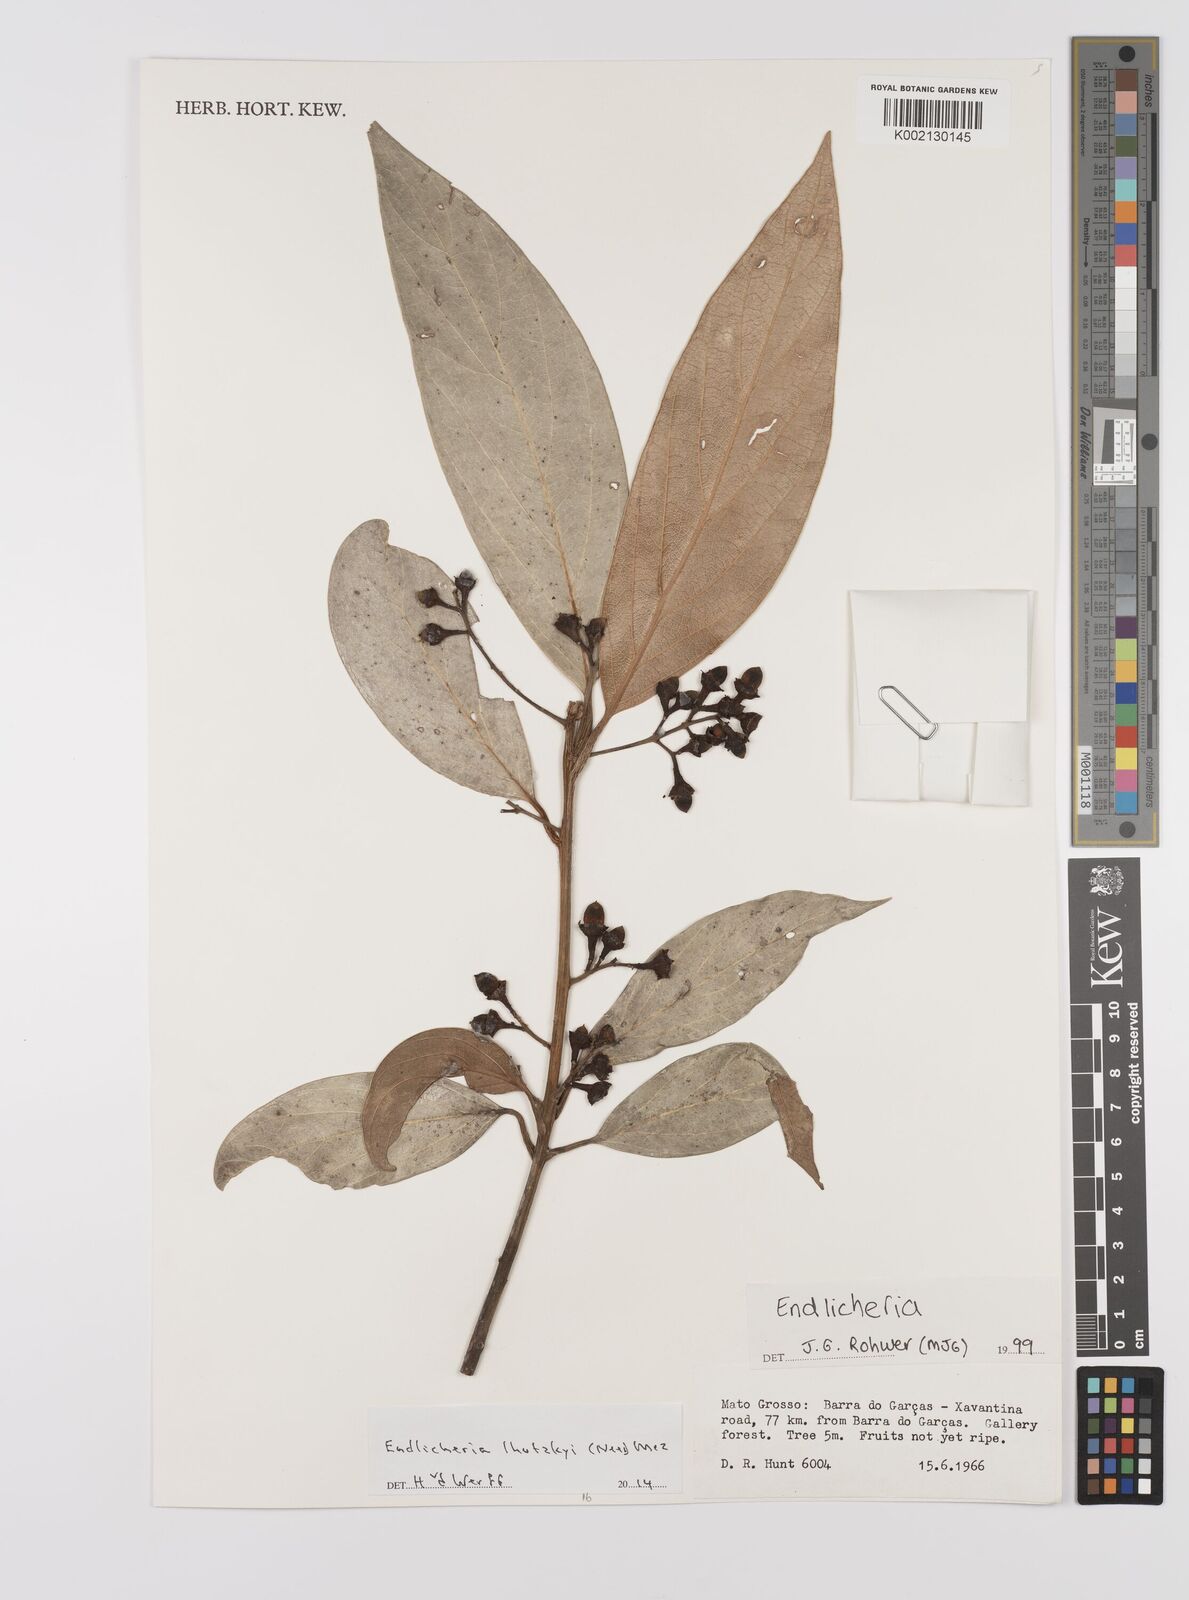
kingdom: Plantae
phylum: Tracheophyta
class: Magnoliopsida
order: Laurales
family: Lauraceae
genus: Endlicheria
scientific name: Endlicheria lhotzkyi
